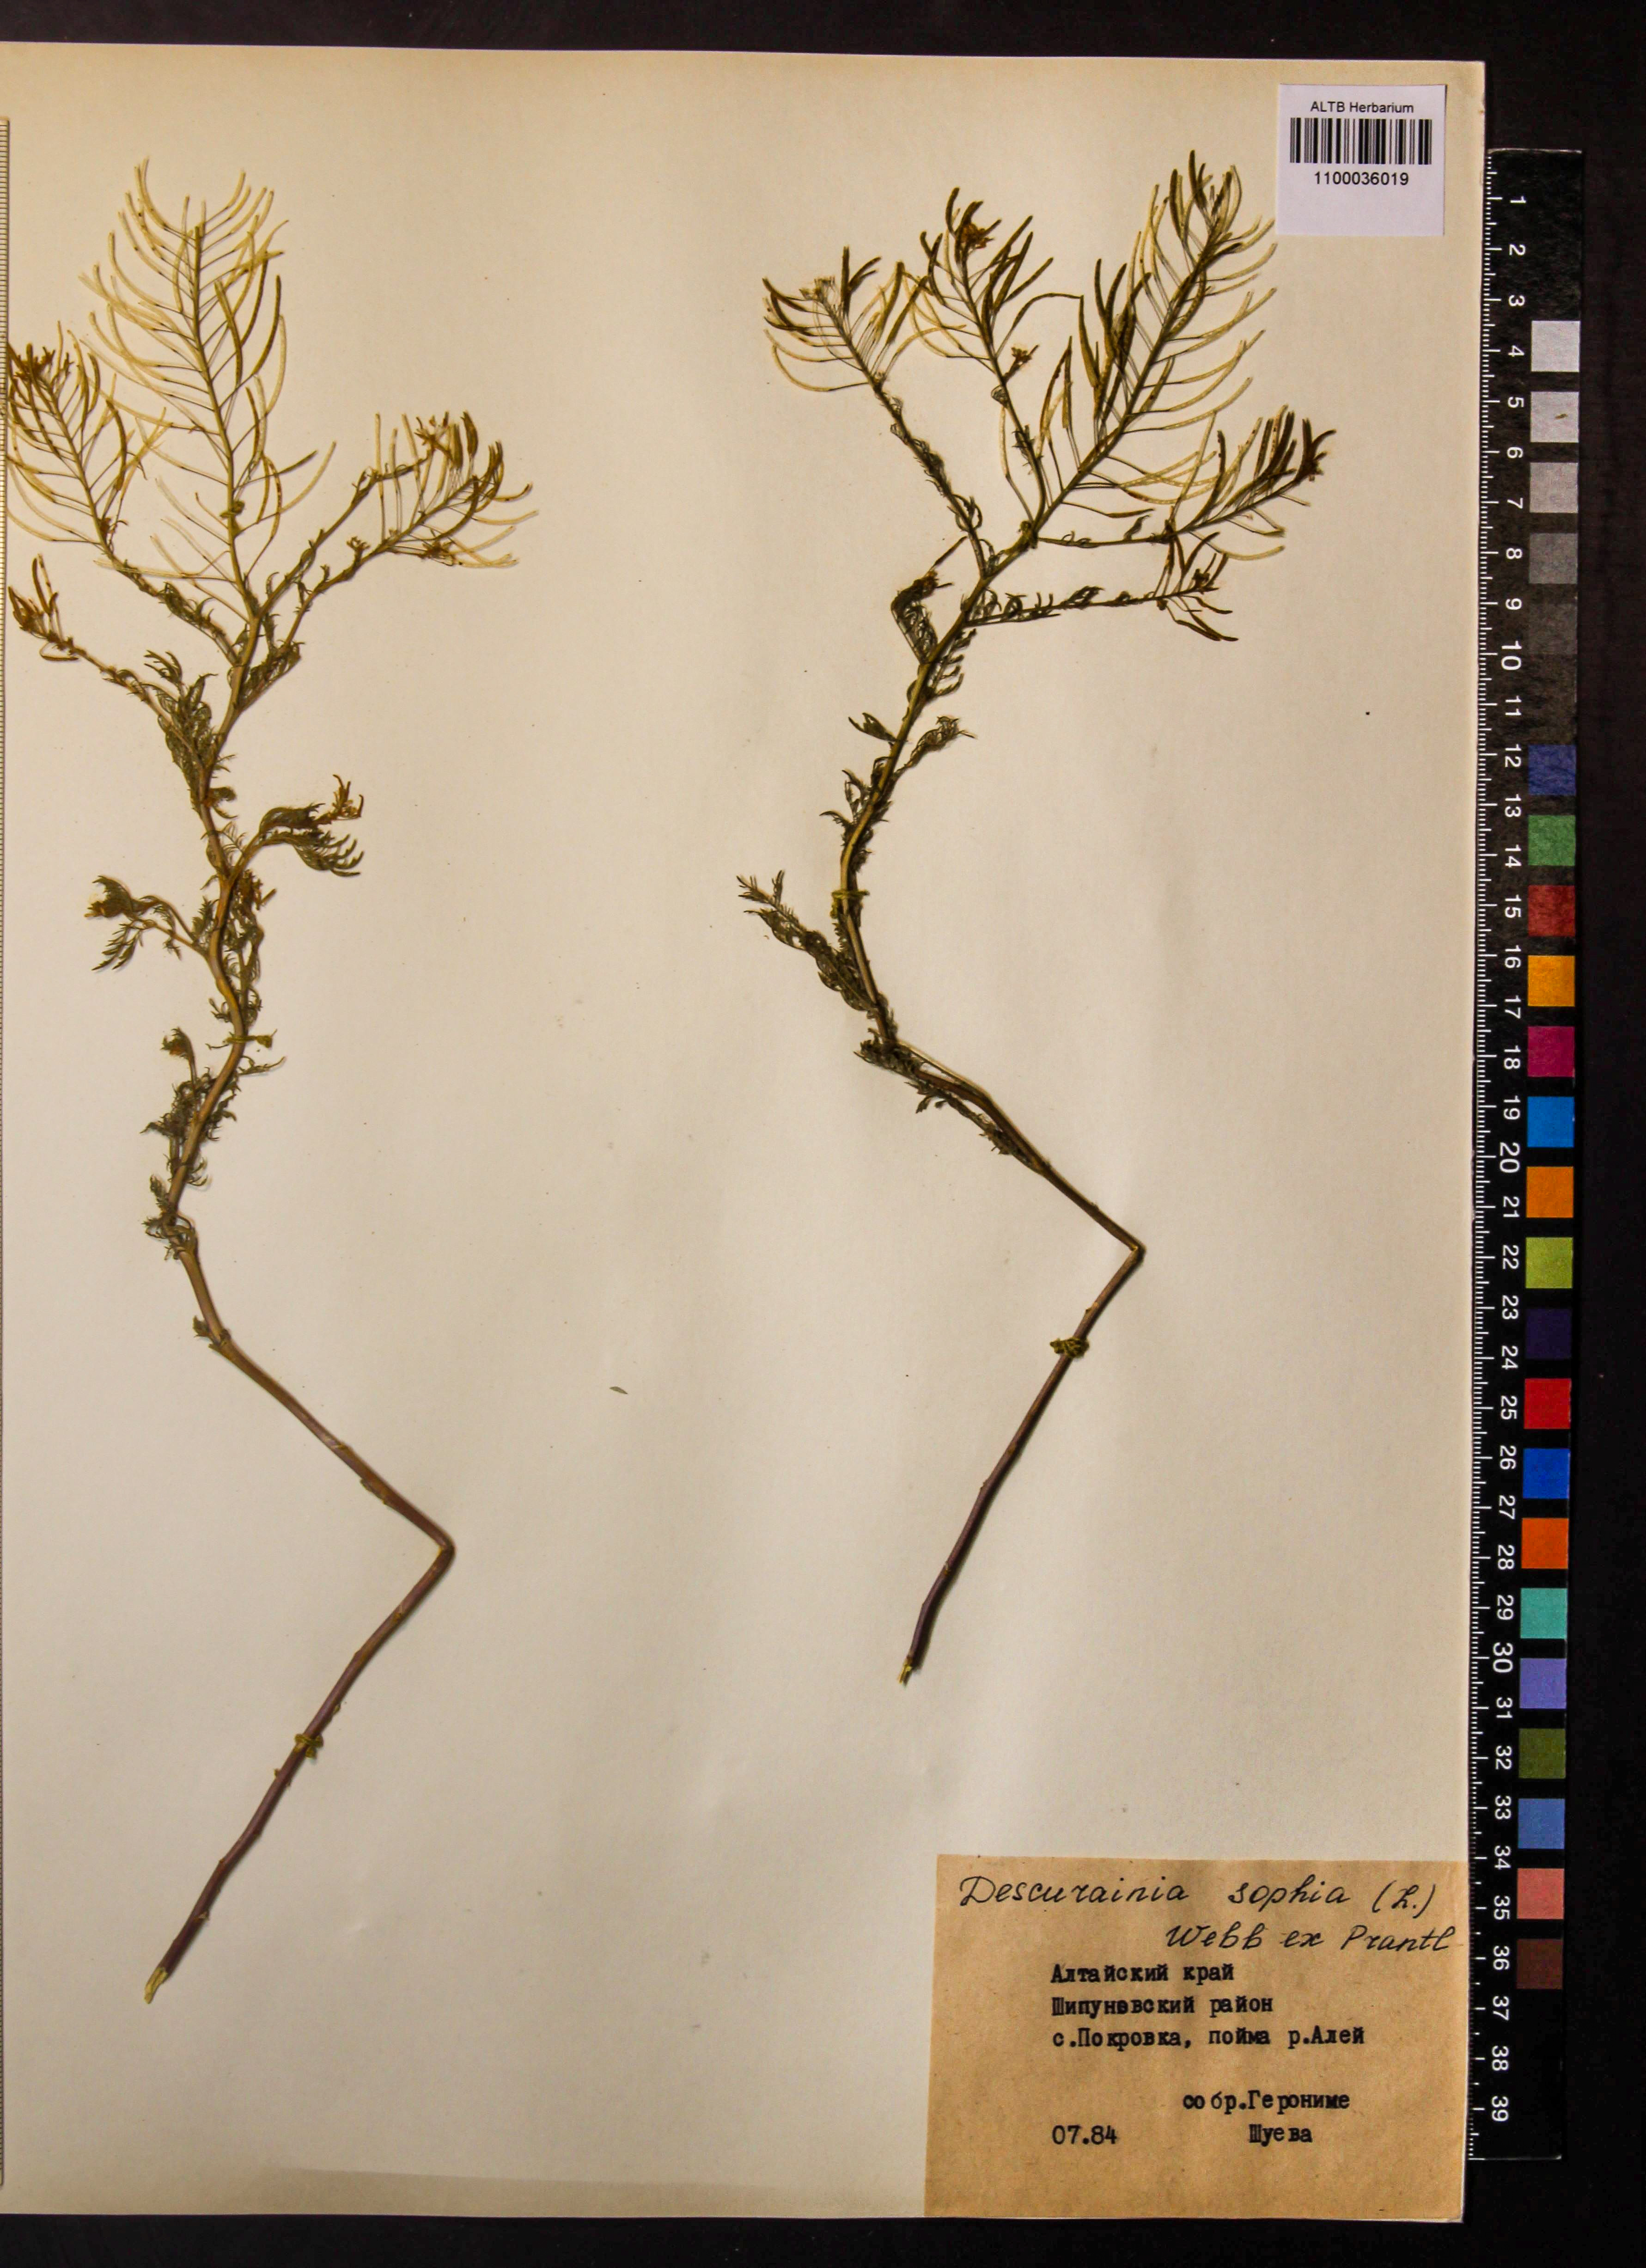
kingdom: Plantae
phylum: Tracheophyta
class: Magnoliopsida
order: Brassicales
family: Brassicaceae
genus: Descurainia
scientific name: Descurainia sophia
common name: Flixweed
